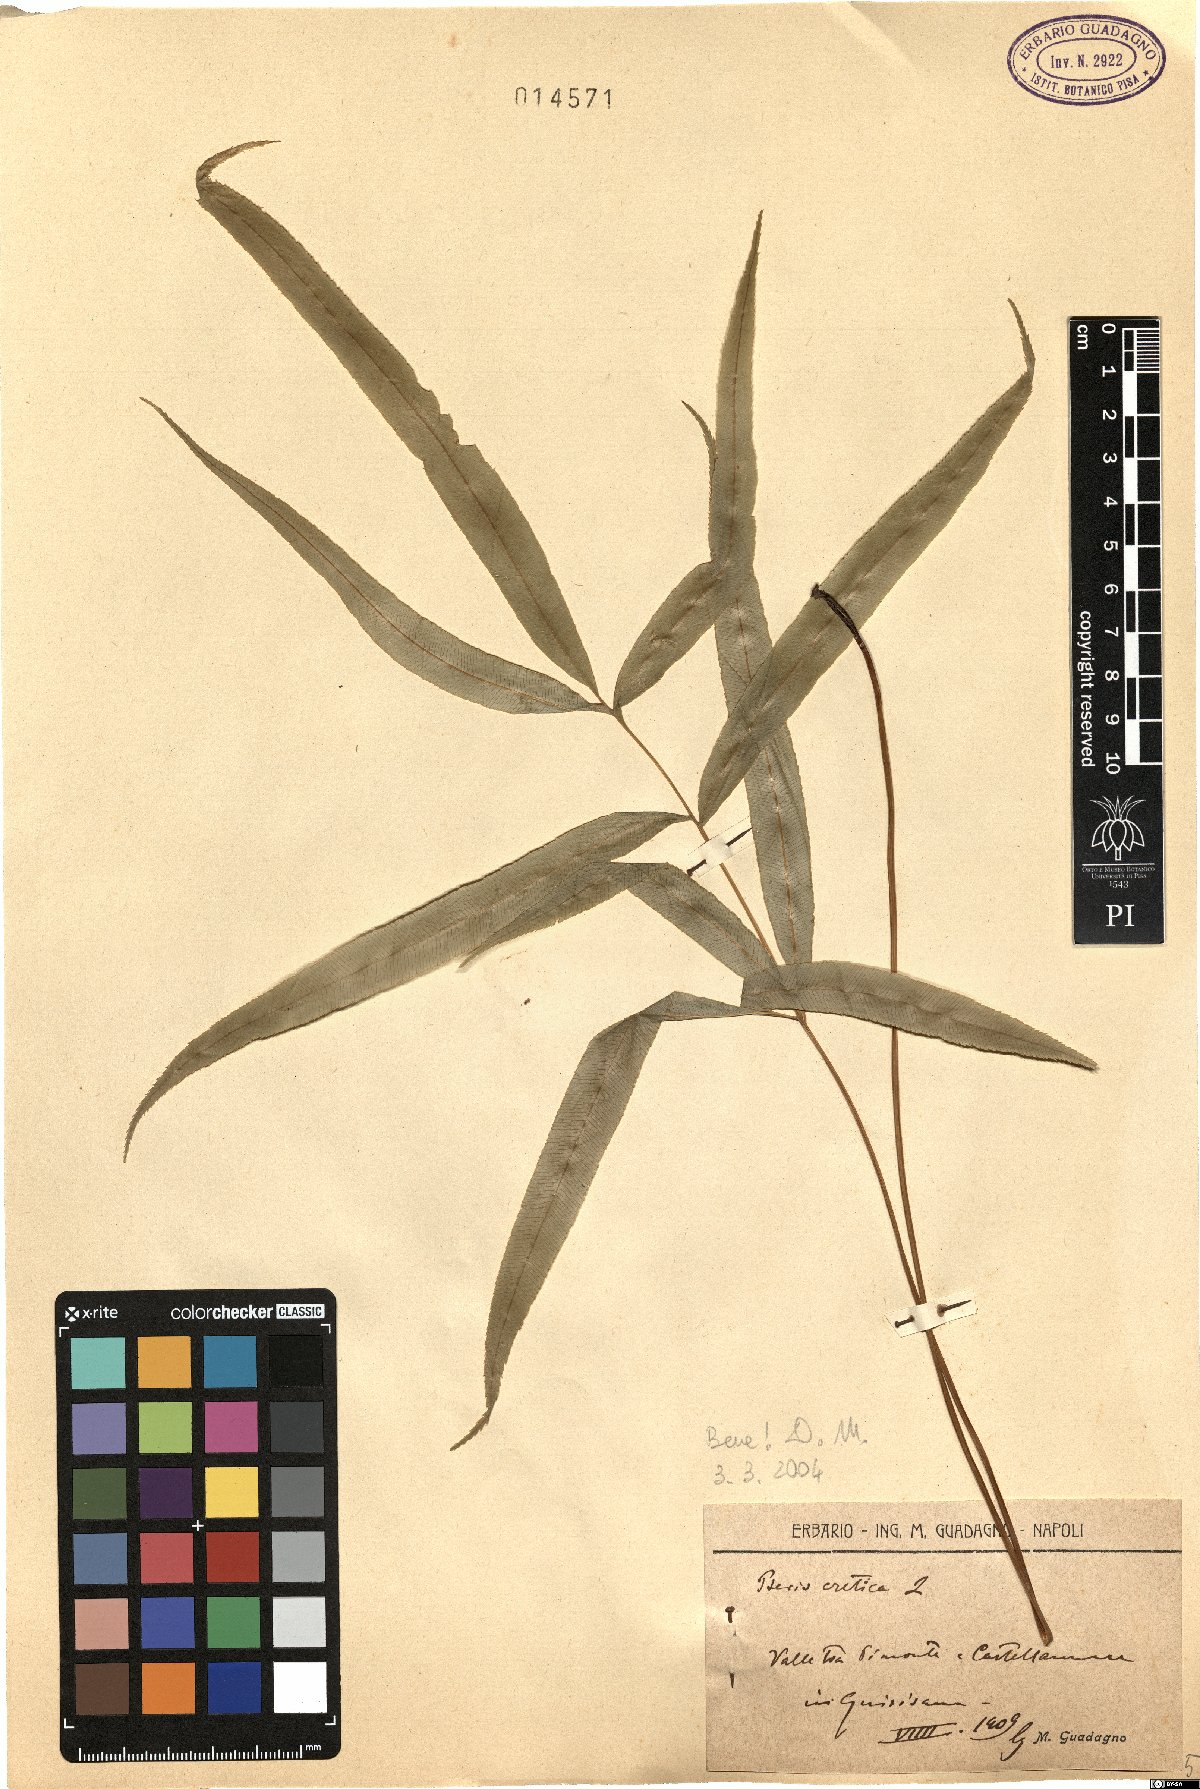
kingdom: Plantae
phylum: Tracheophyta
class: Polypodiopsida
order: Polypodiales
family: Pteridaceae
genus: Pteris
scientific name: Pteris cretica
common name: Ribbon fern
